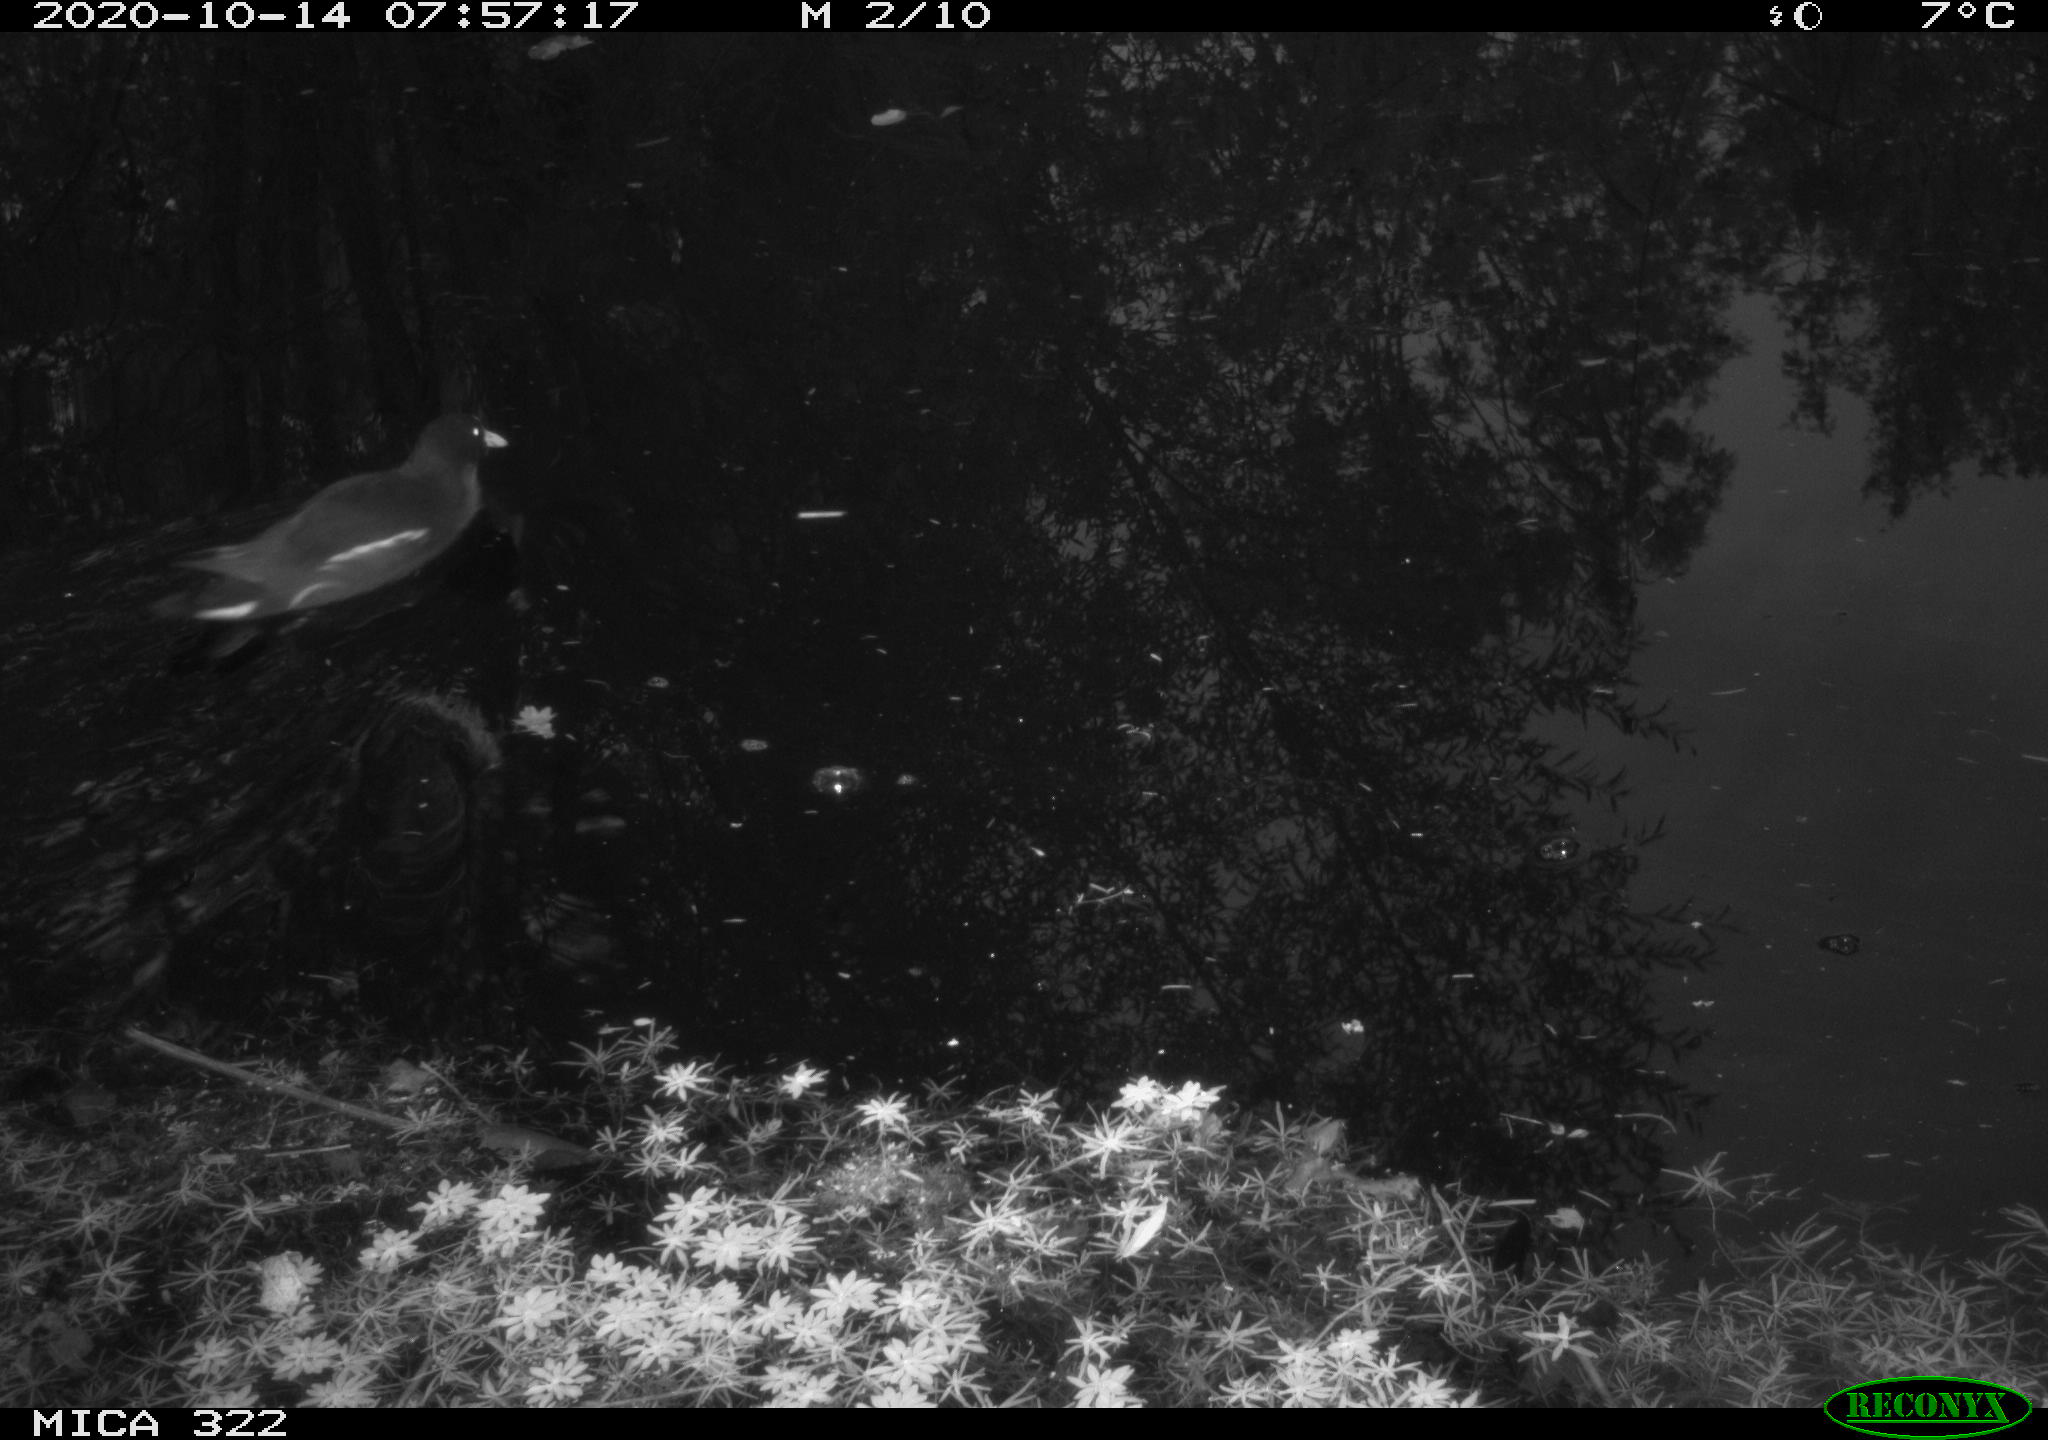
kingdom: Animalia
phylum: Chordata
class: Aves
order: Gruiformes
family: Rallidae
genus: Gallinula
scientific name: Gallinula chloropus
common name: Common moorhen
